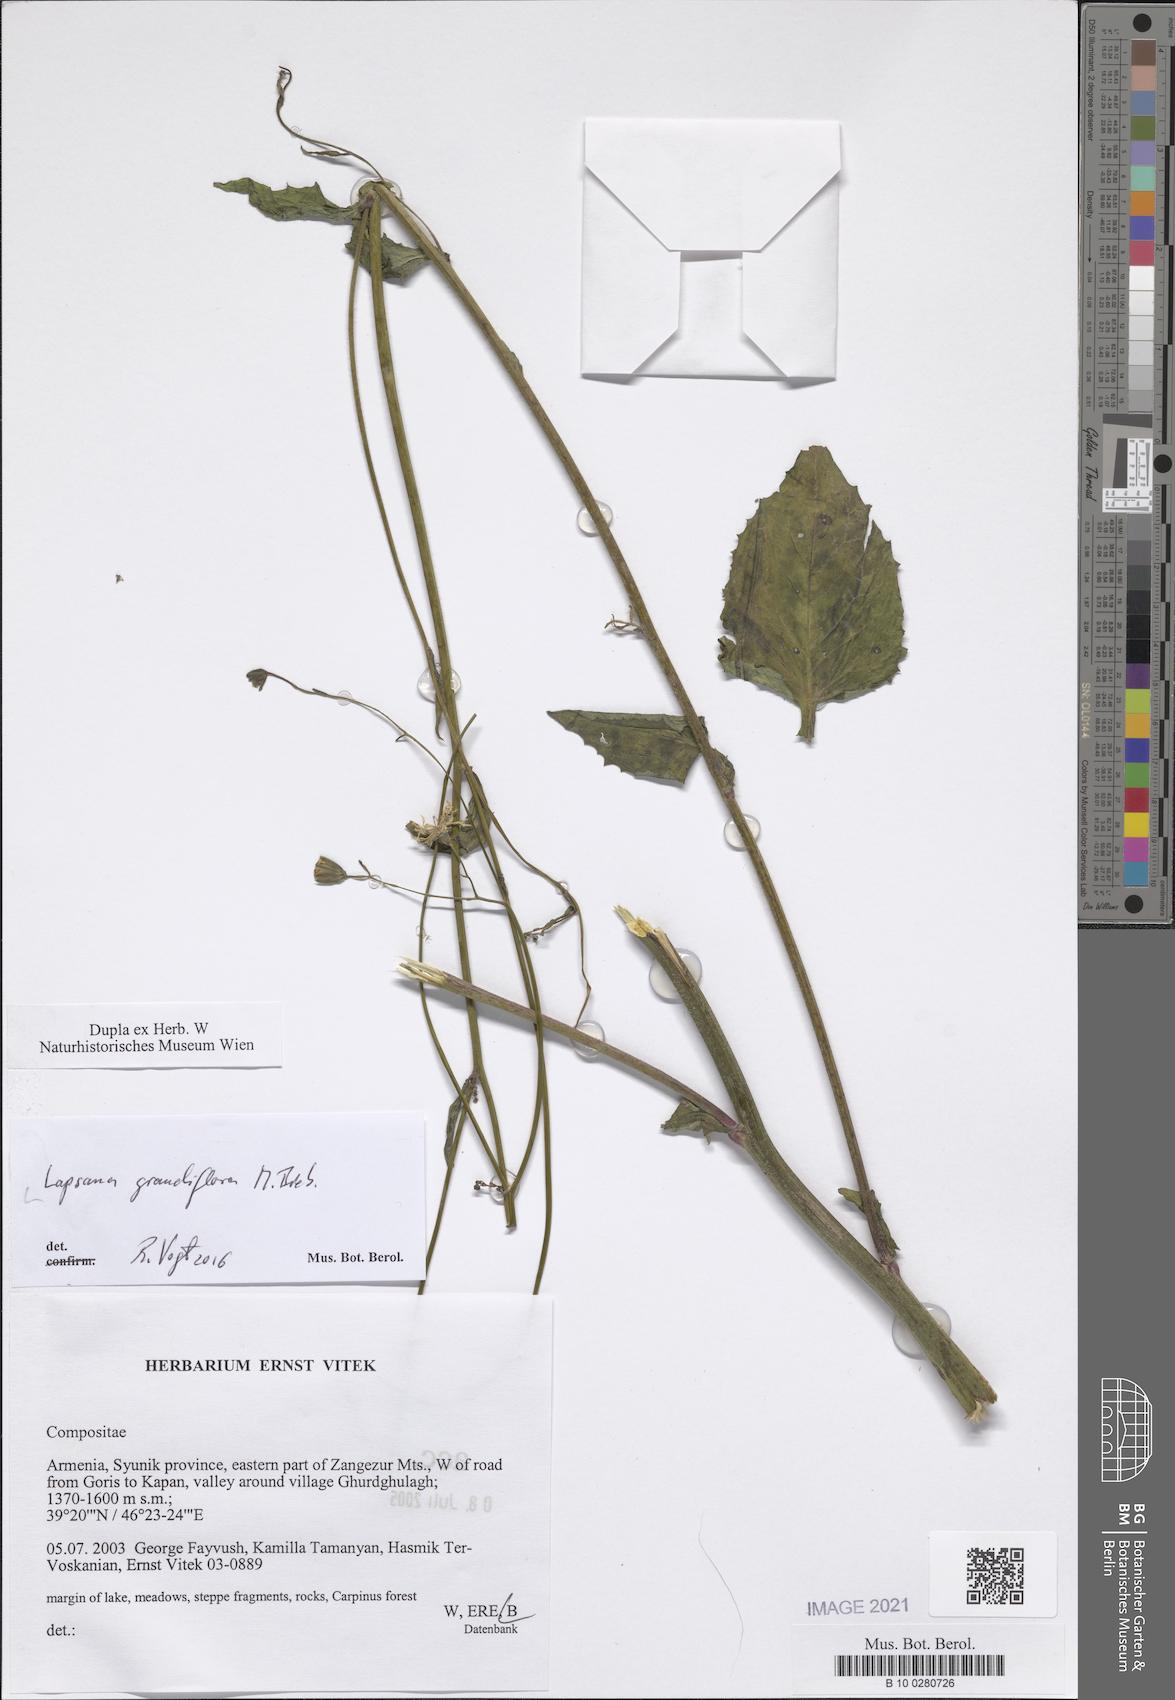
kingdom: Plantae
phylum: Tracheophyta
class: Magnoliopsida
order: Asterales
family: Asteraceae
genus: Lapsana
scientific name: Lapsana communis
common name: Nipplewort
